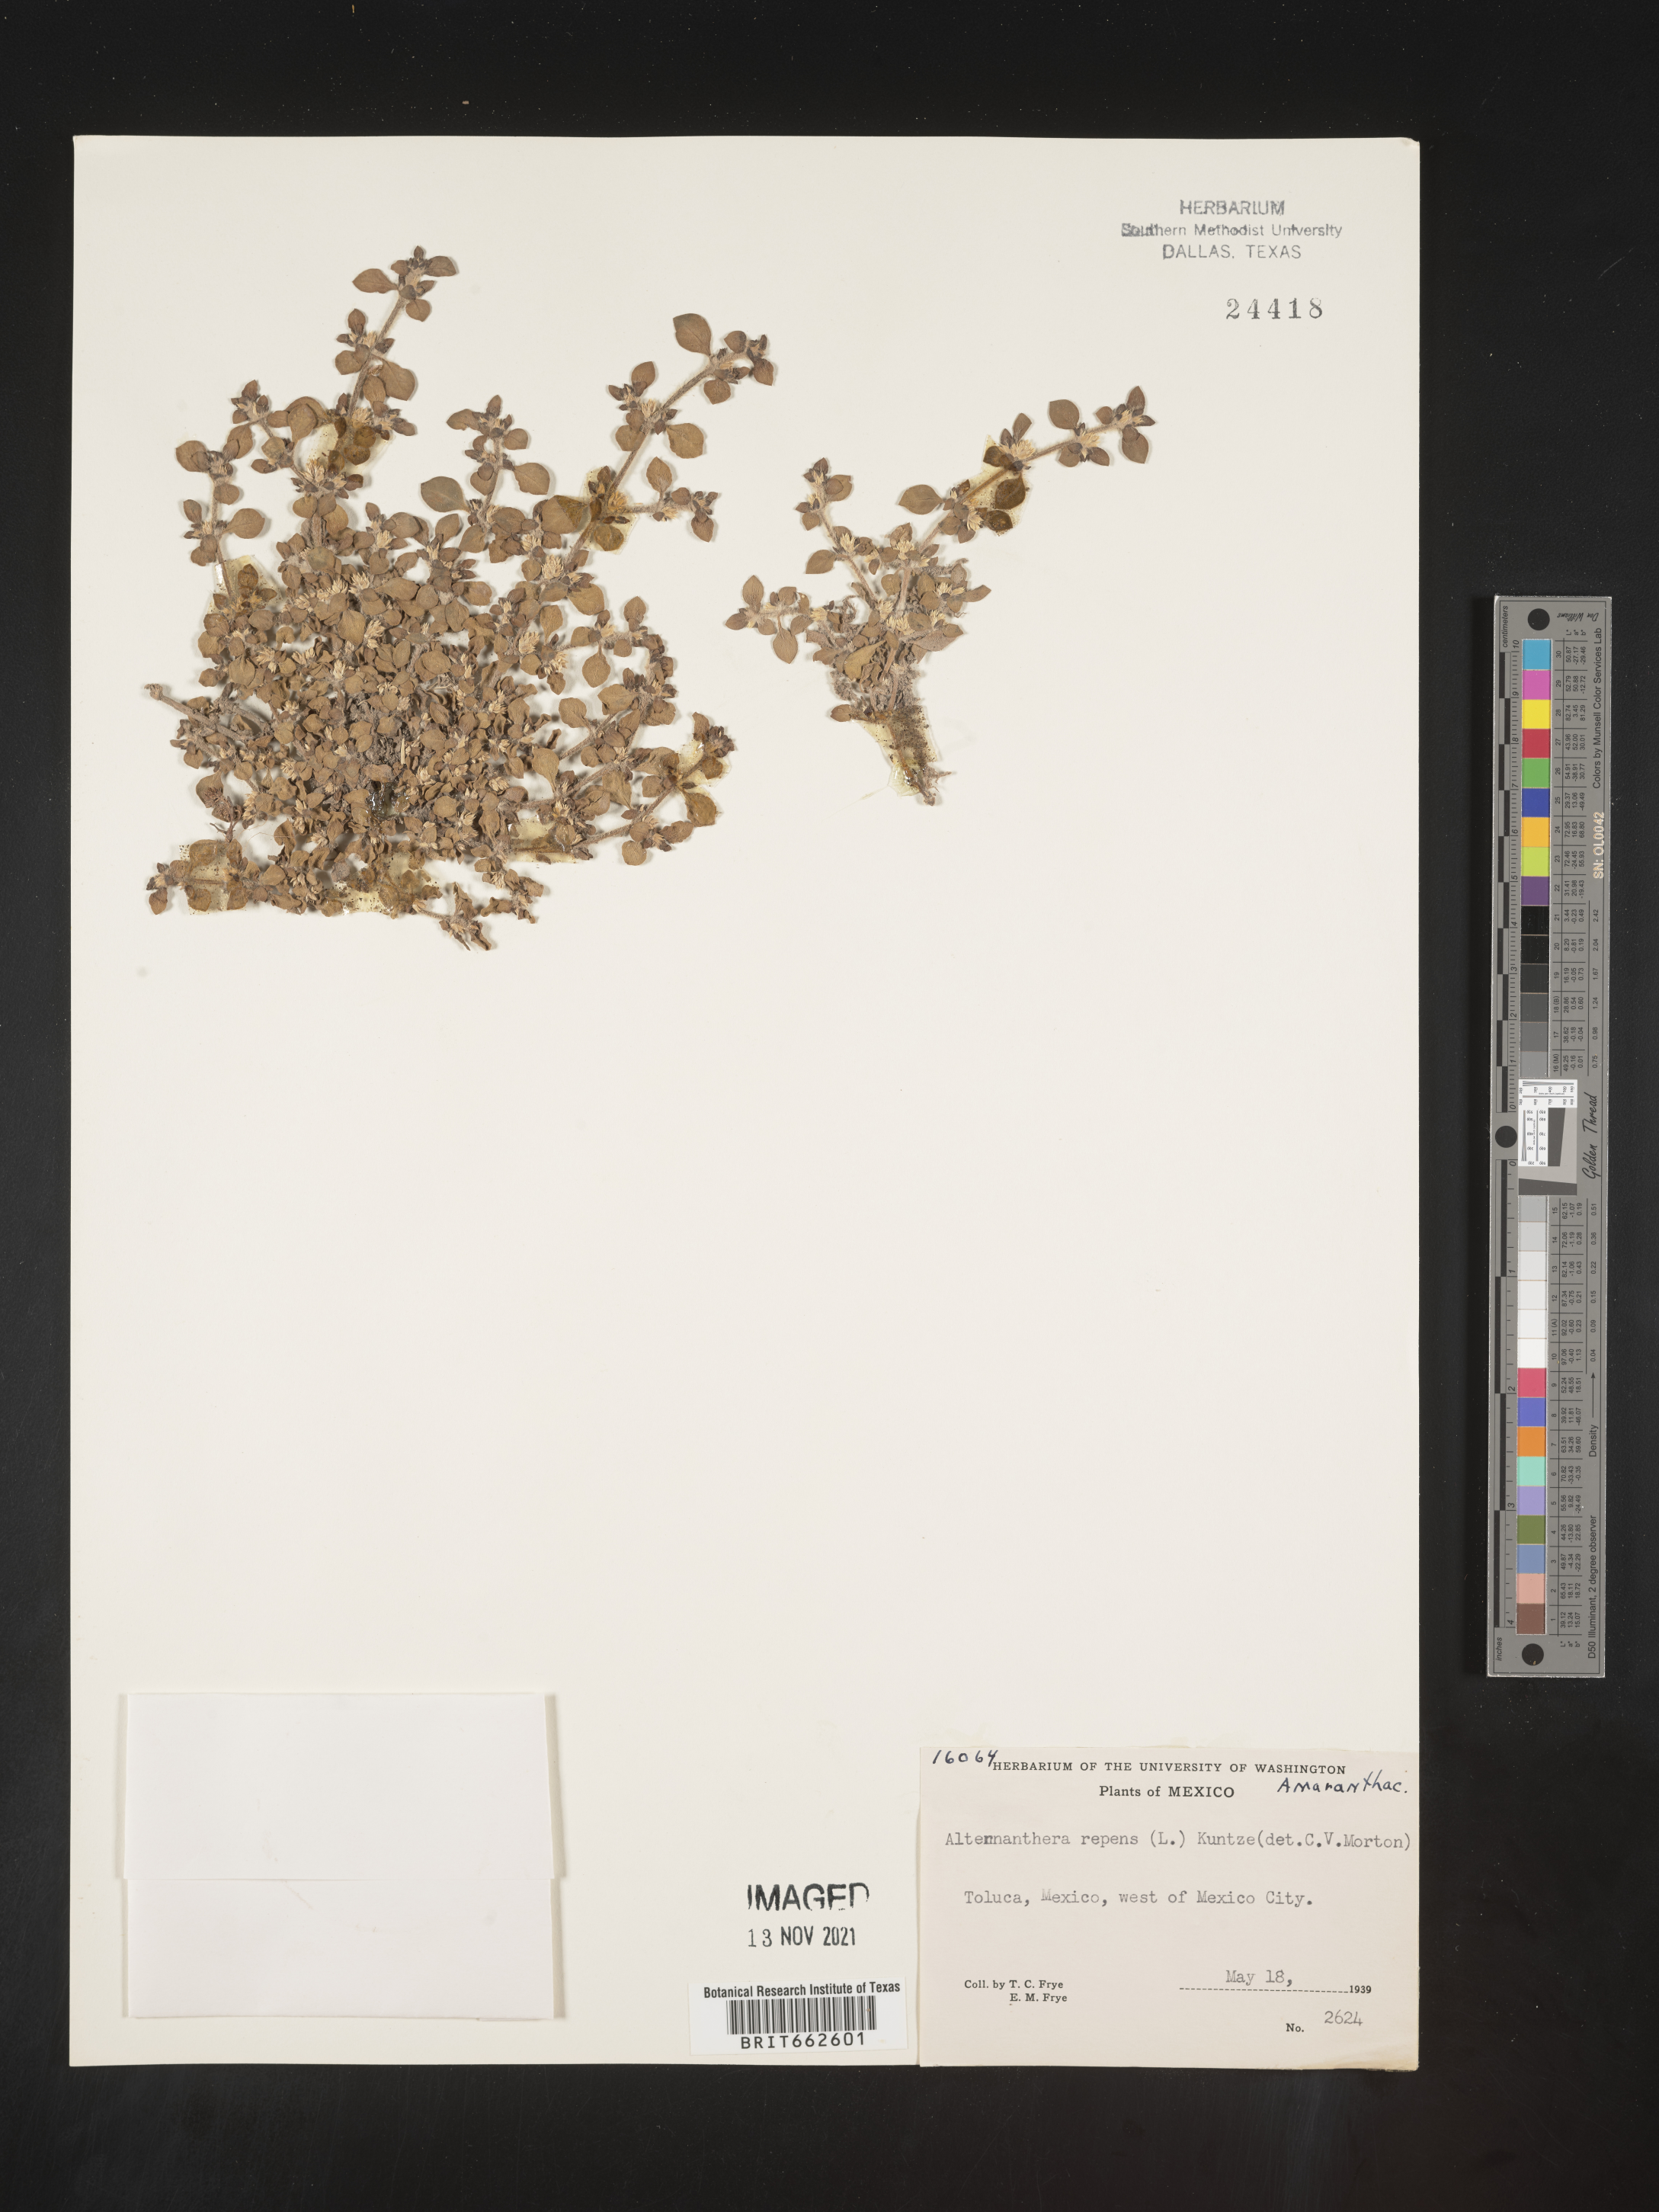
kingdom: Plantae
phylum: Tracheophyta
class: Magnoliopsida
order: Caryophyllales
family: Amaranthaceae
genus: Alternanthera
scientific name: Alternanthera
